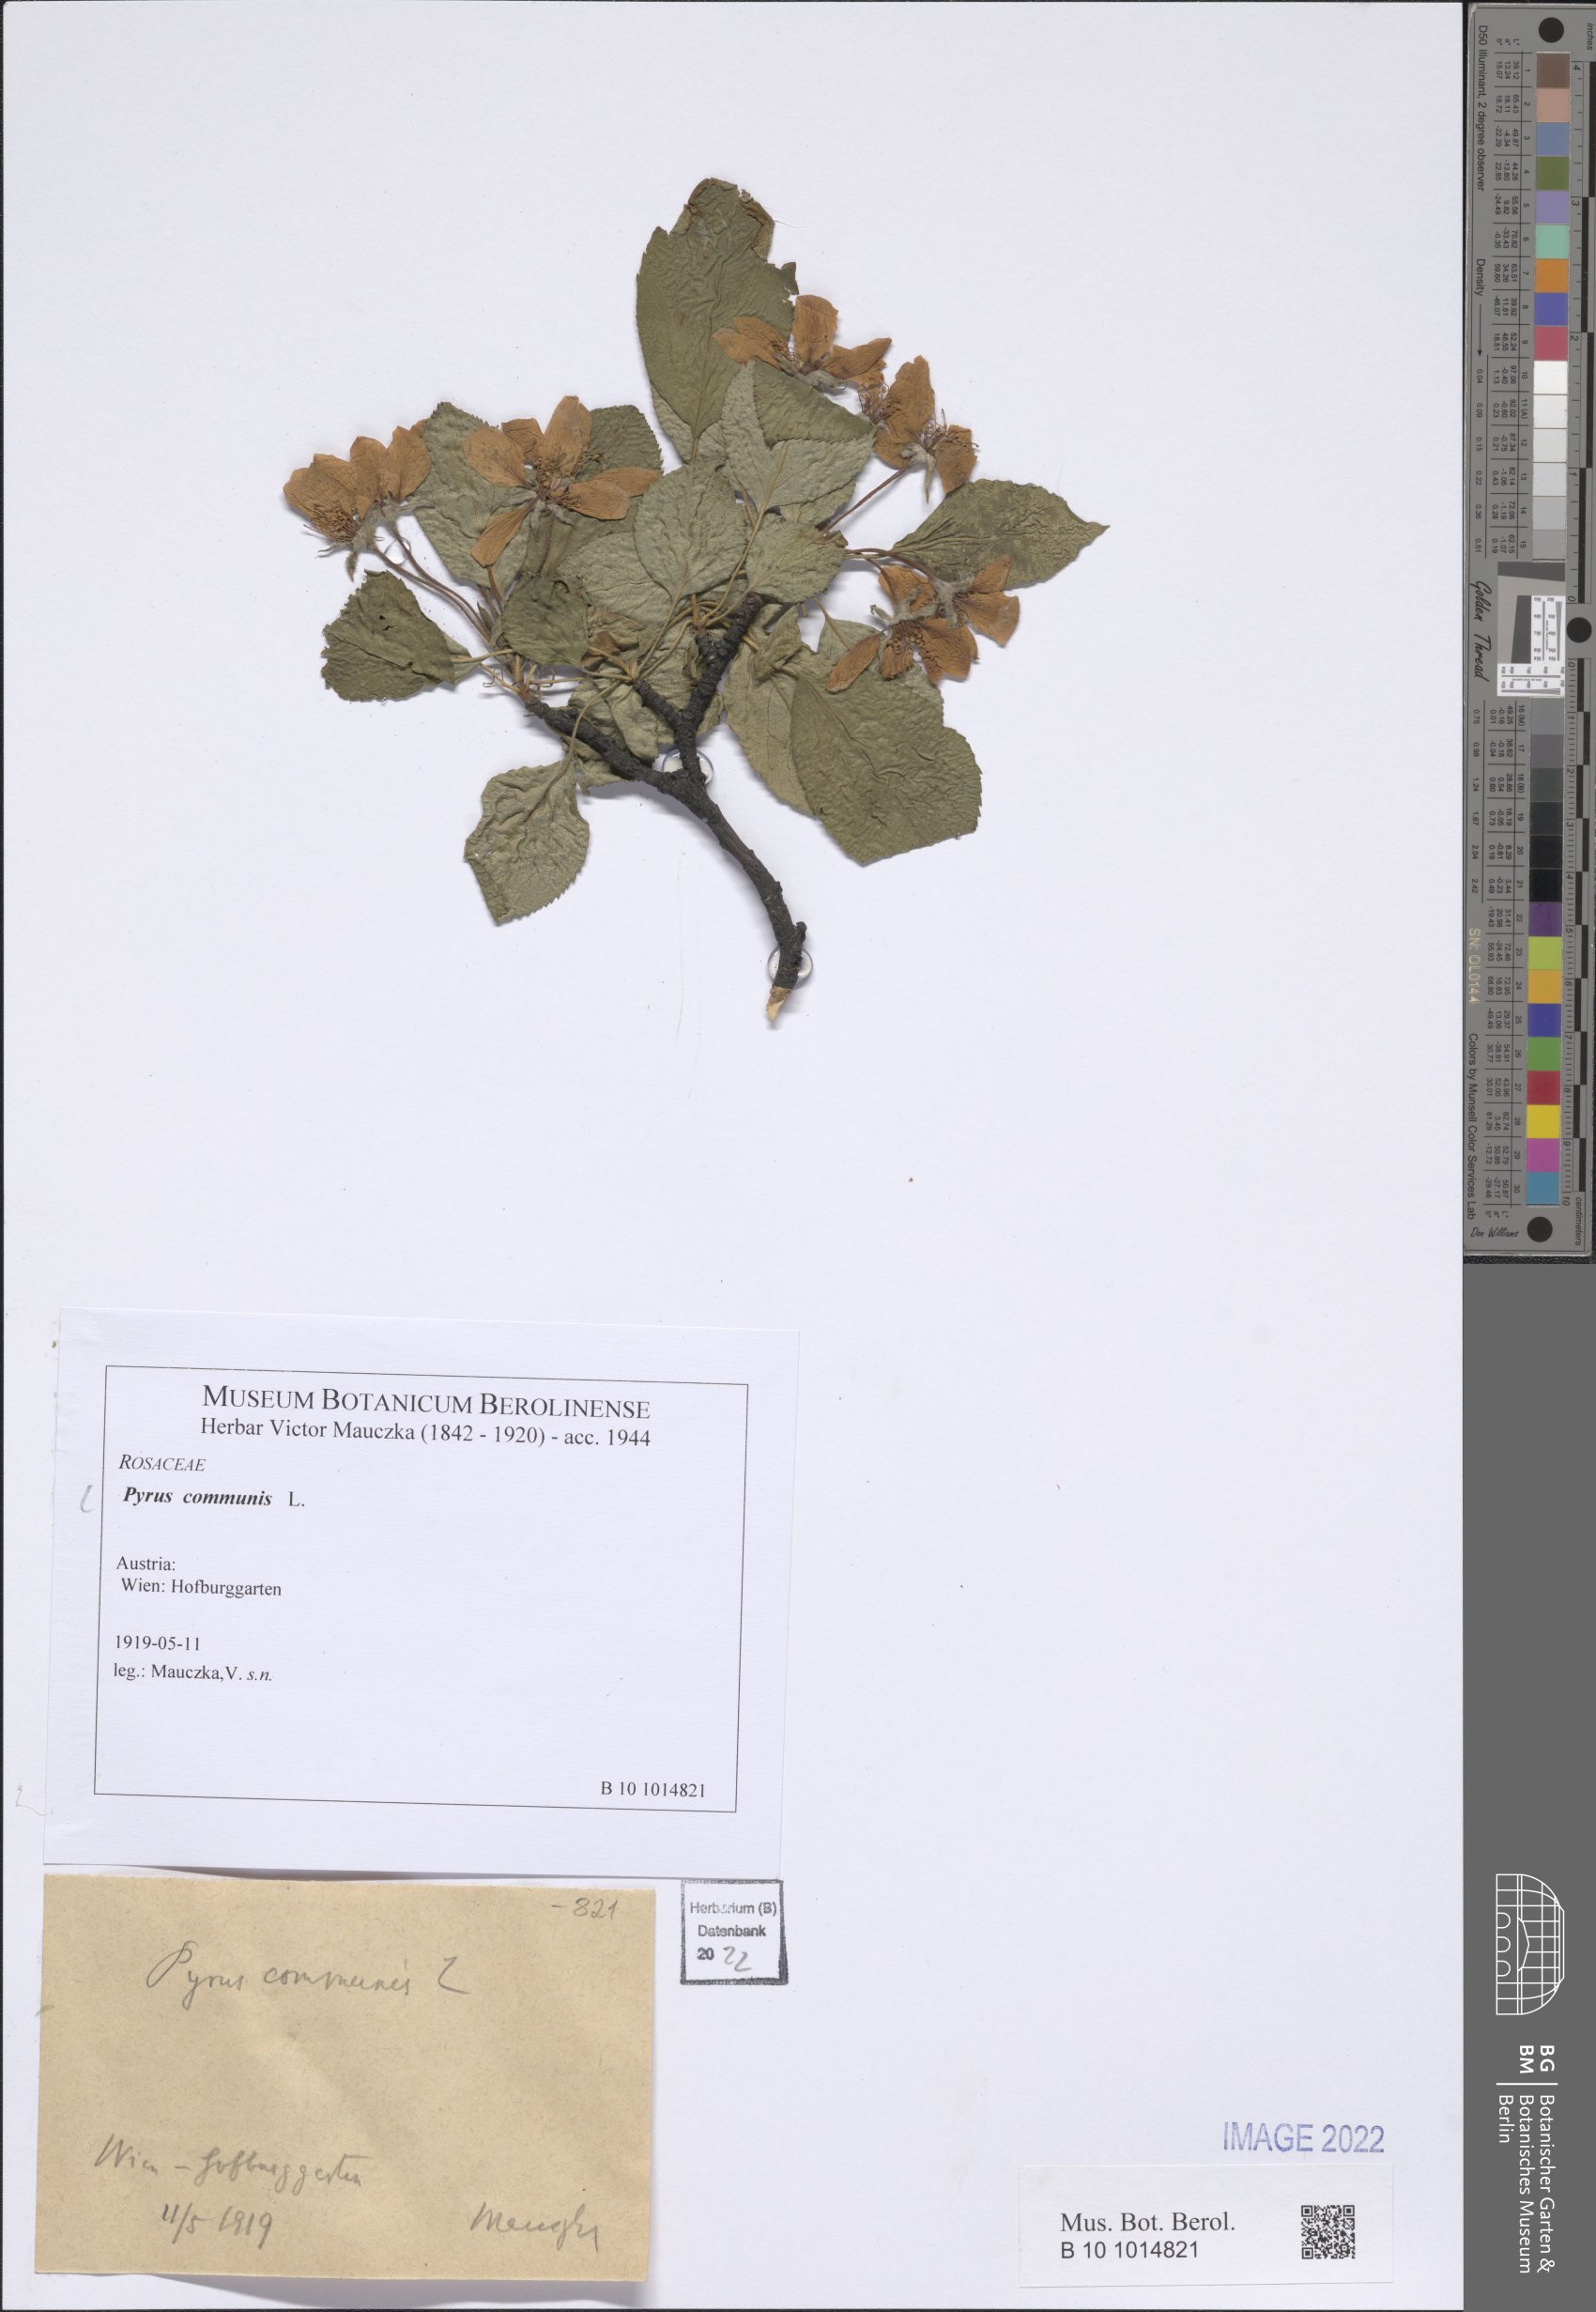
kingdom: Plantae
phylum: Tracheophyta
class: Magnoliopsida
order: Rosales
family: Rosaceae
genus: Pyrus
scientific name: Pyrus communis
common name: Pear
